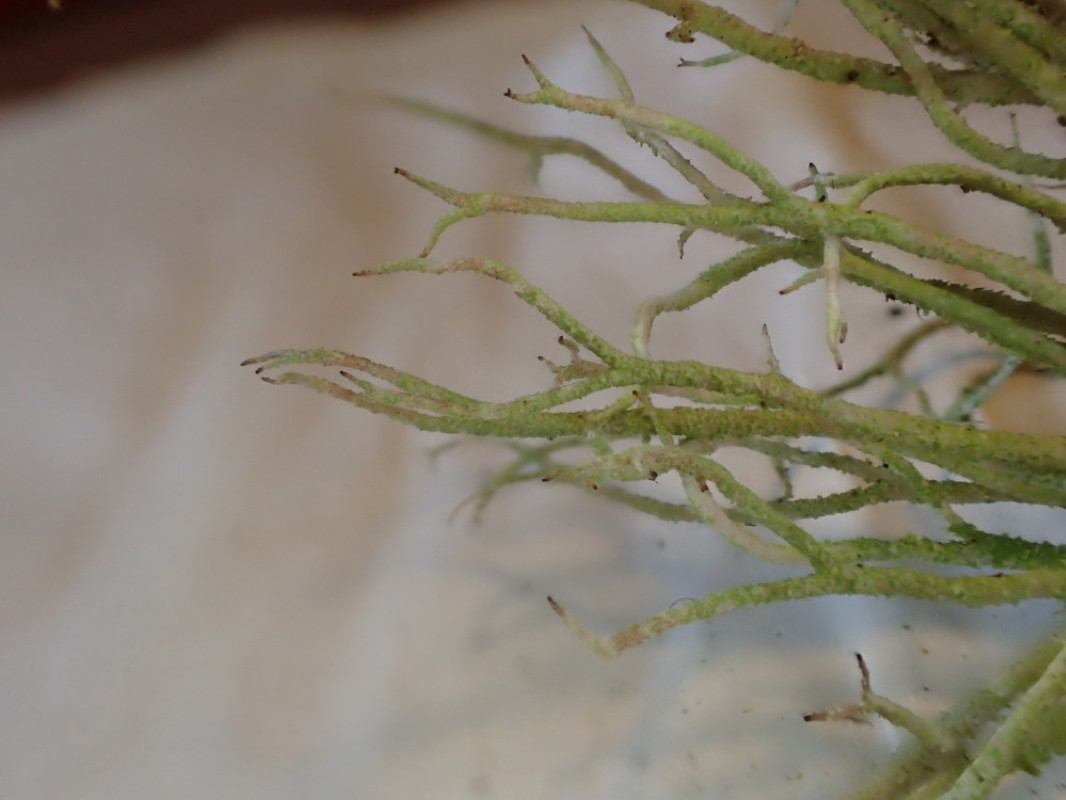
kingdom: Fungi
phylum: Ascomycota
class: Lecanoromycetes
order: Lecanorales
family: Cladoniaceae
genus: Cladonia
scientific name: Cladonia scabriuscula
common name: ru bægerlav
